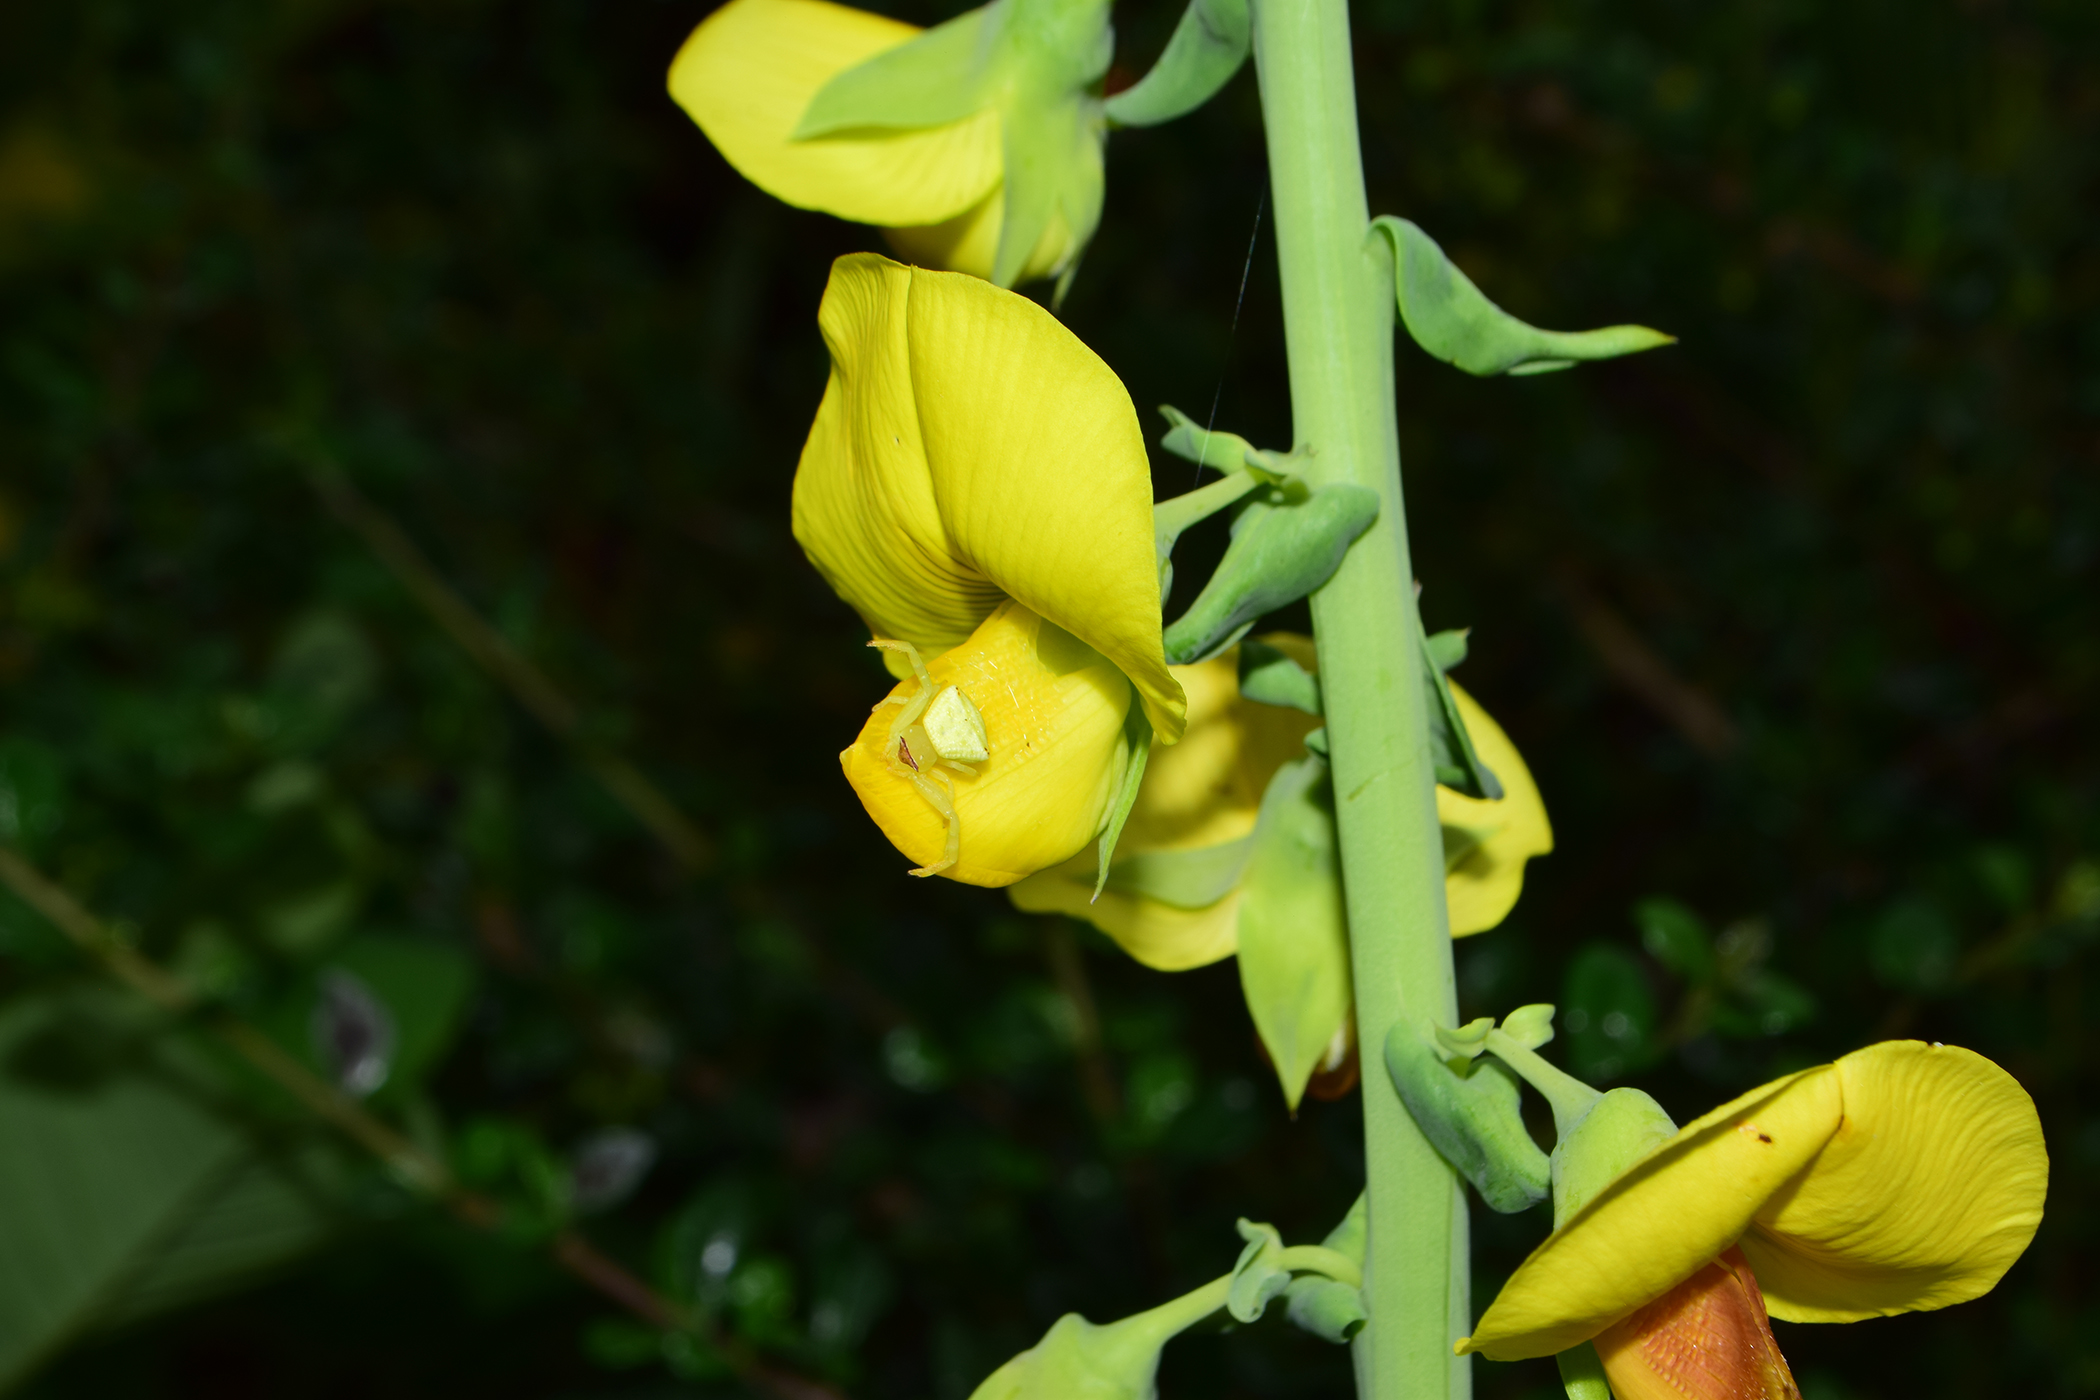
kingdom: Plantae
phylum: Tracheophyta
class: Magnoliopsida
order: Fabales
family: Fabaceae
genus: Crotalaria
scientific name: Crotalaria spectabilis
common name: Showy rattlebox
